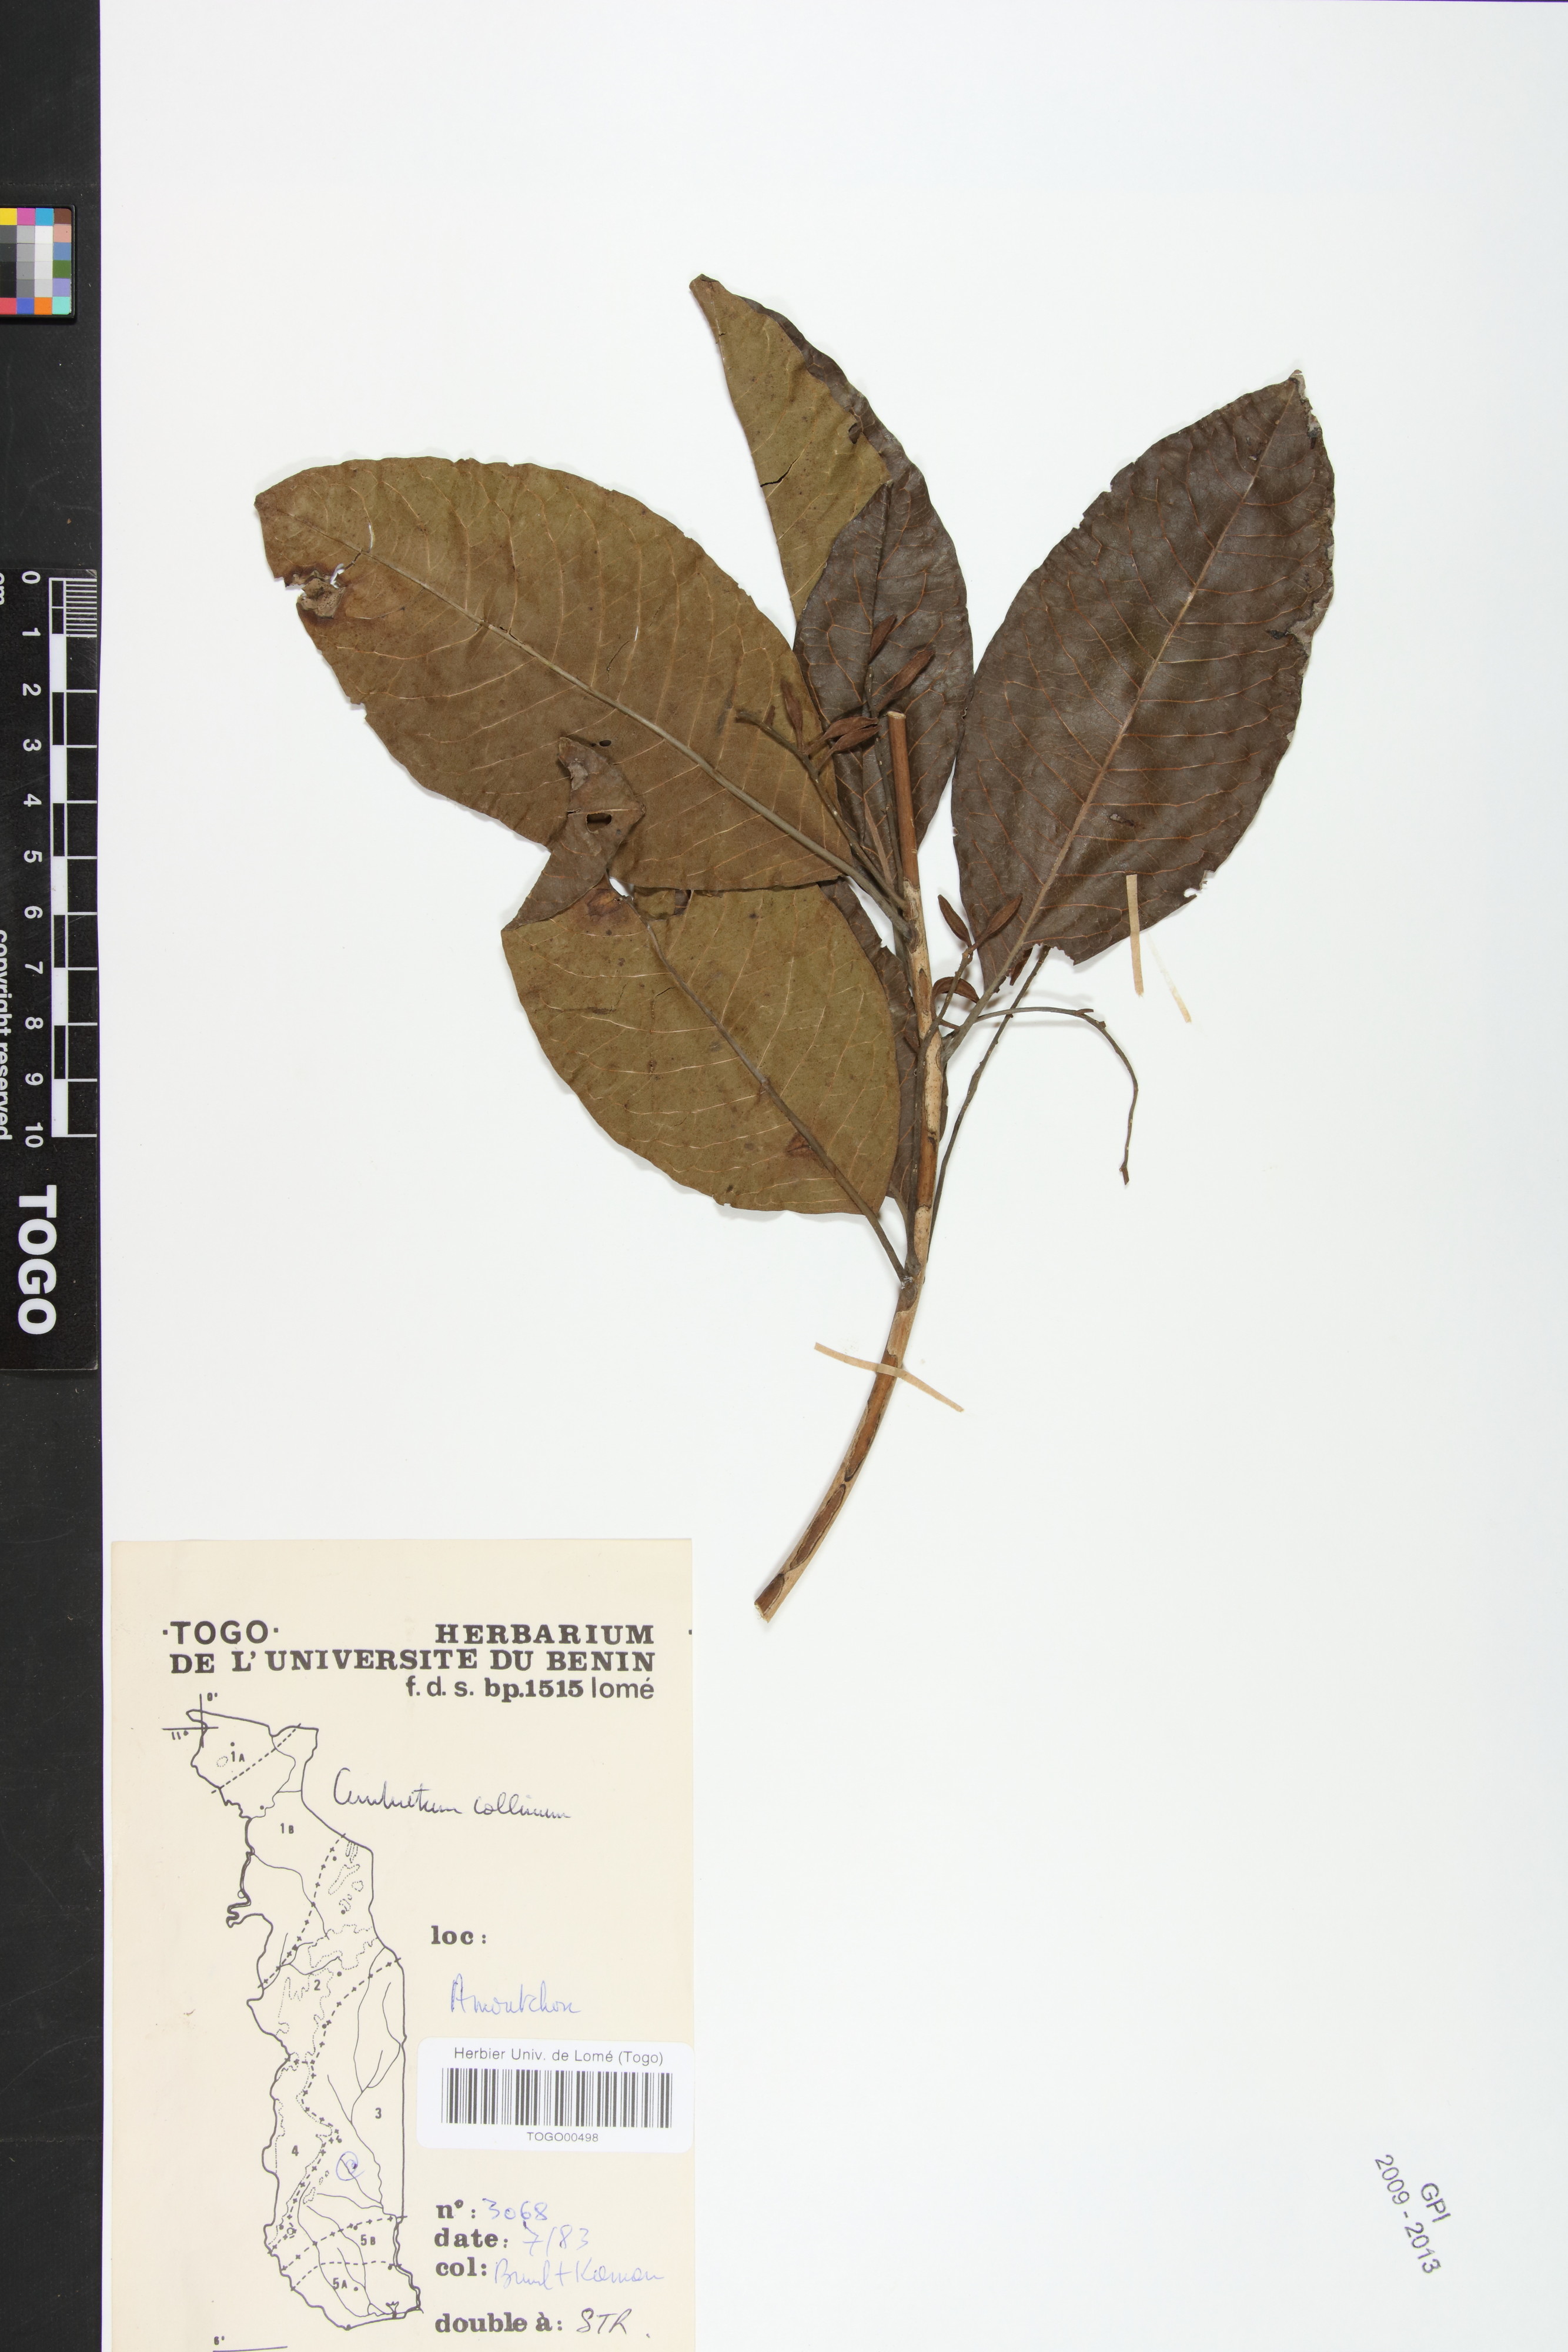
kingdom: Plantae
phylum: Tracheophyta
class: Magnoliopsida
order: Myrtales
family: Combretaceae
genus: Combretum
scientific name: Combretum collinum
